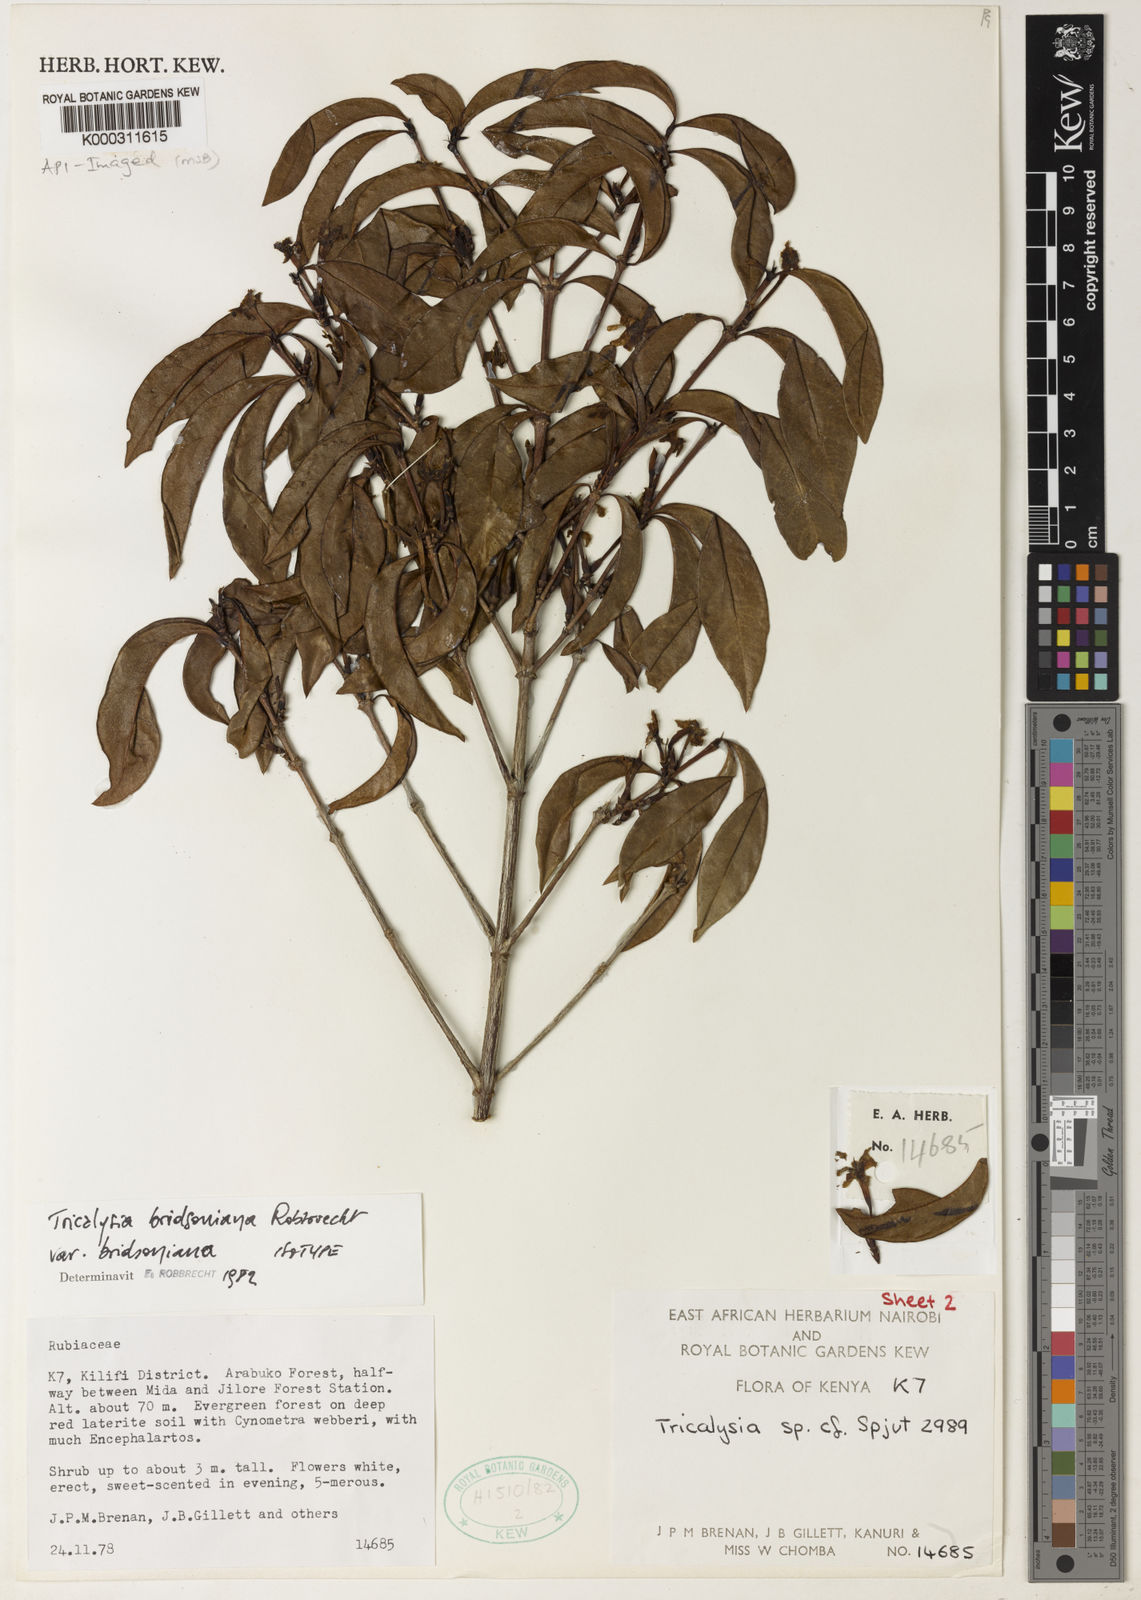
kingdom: Plantae
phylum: Tracheophyta
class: Magnoliopsida
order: Gentianales
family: Rubiaceae
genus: Tricalysia
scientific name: Tricalysia bridsoniana
